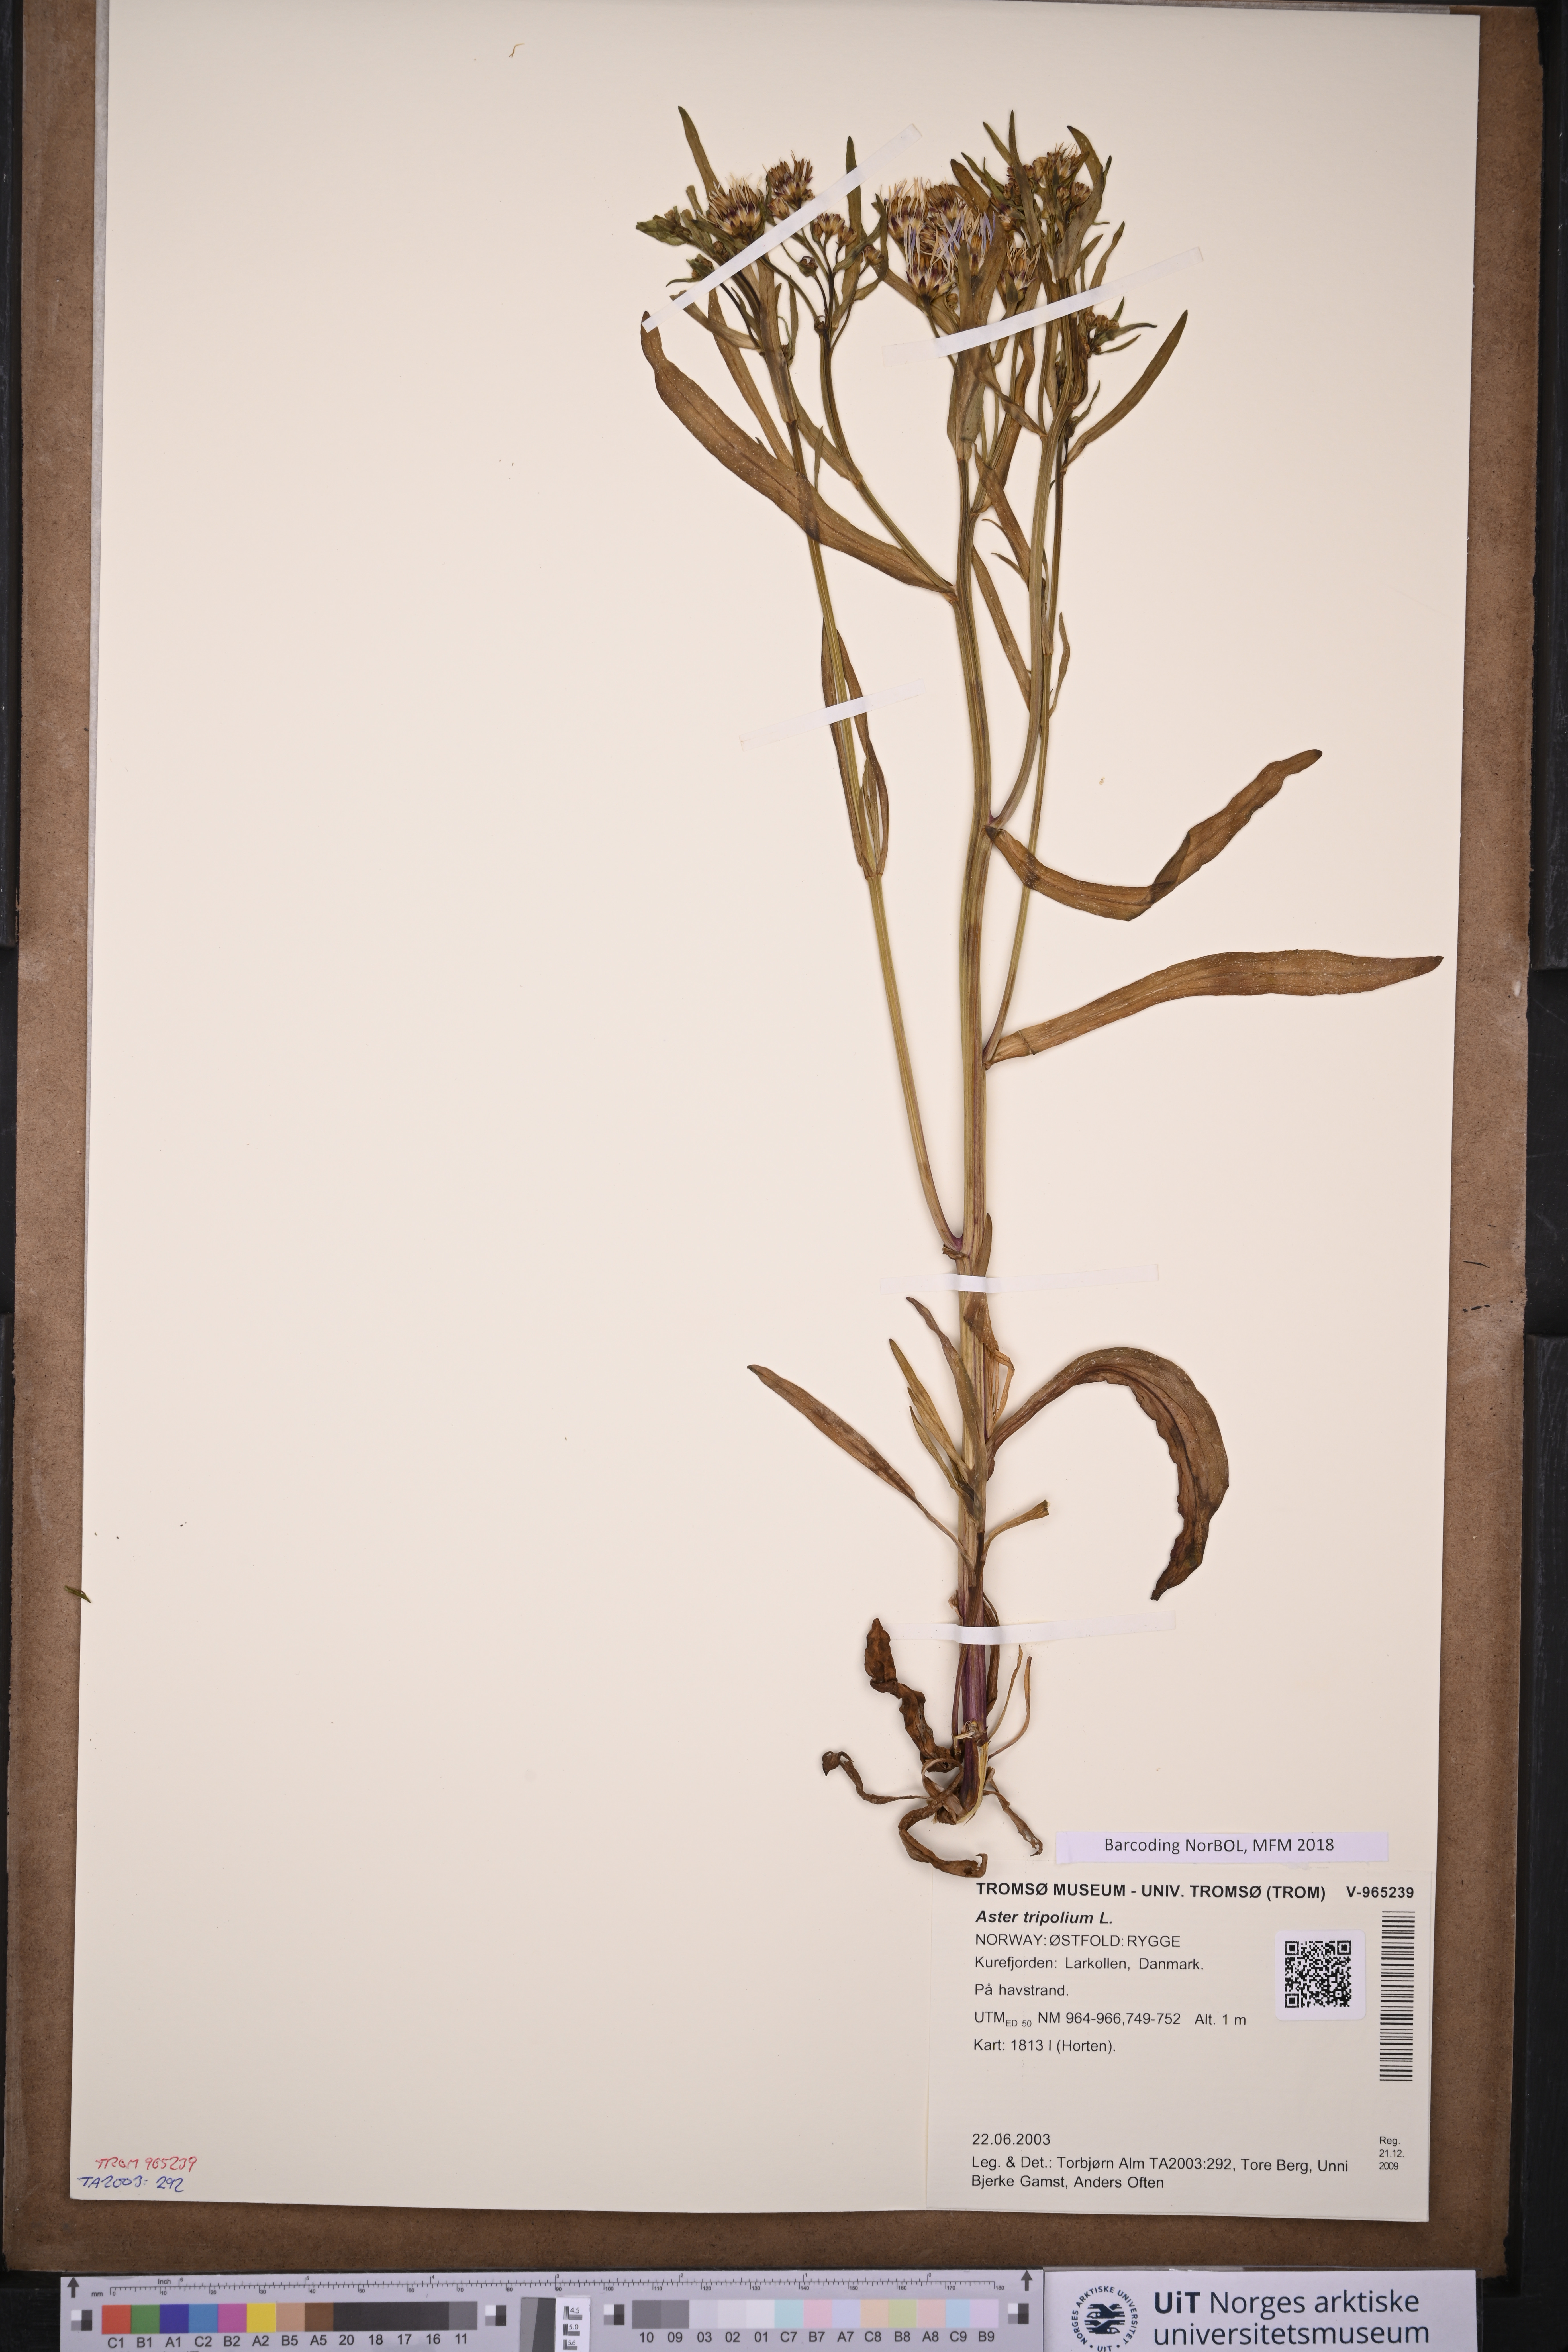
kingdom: Plantae
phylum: Tracheophyta
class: Magnoliopsida
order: Asterales
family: Asteraceae
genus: Tripolium
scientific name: Tripolium pannonicum
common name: Sea aster
